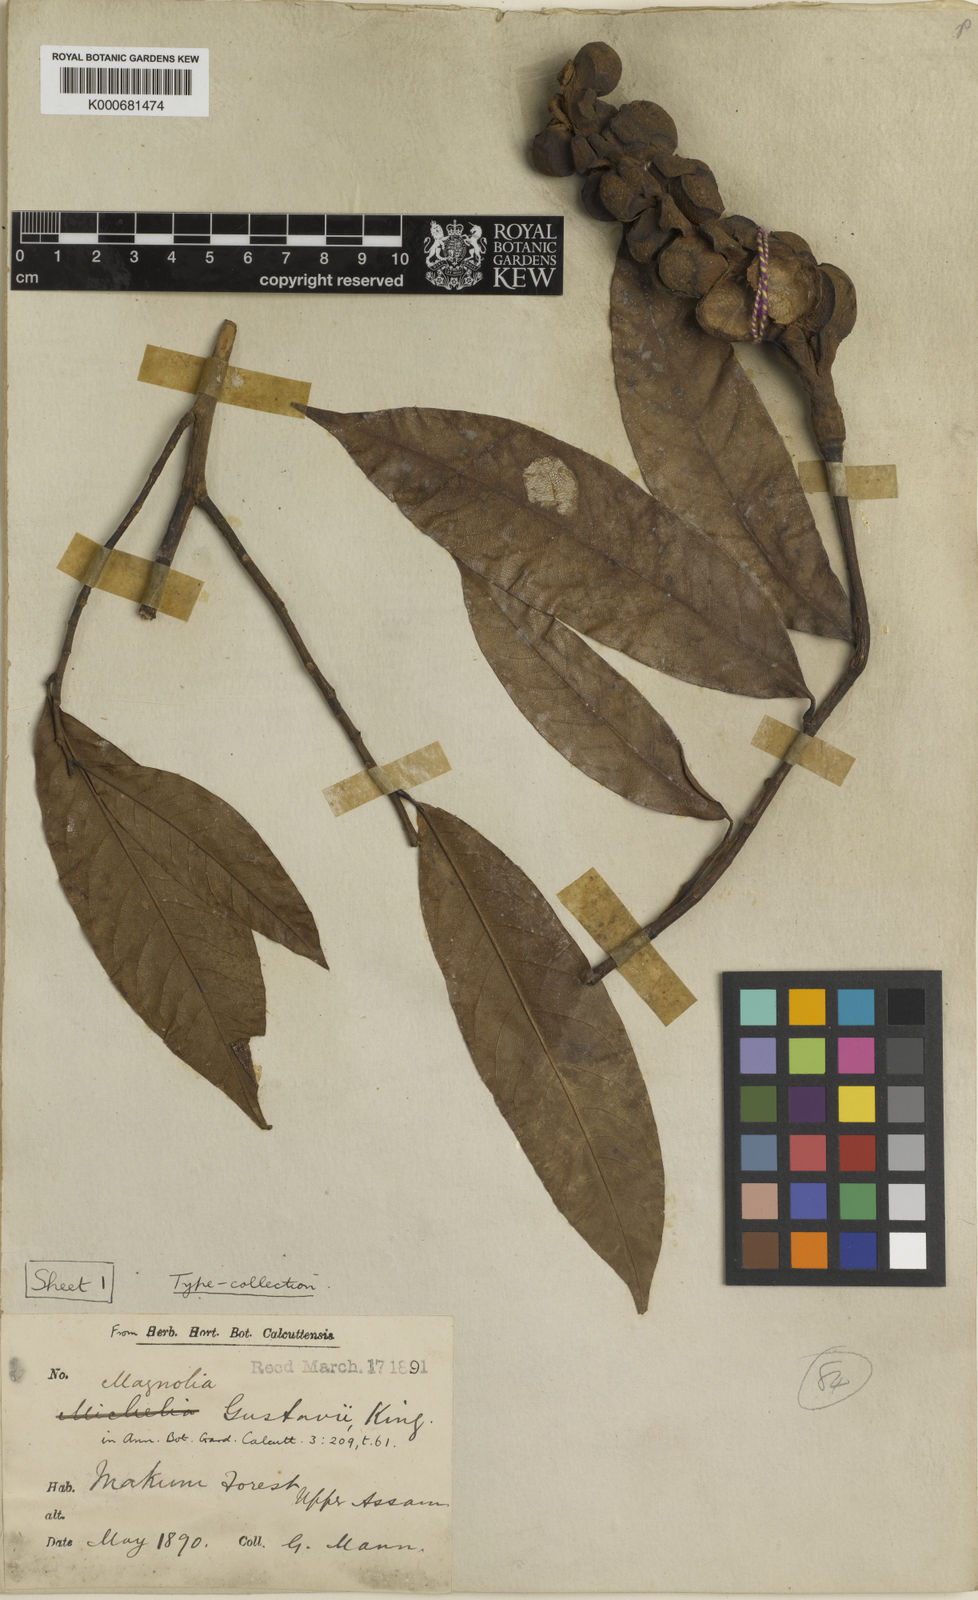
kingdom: Plantae
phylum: Tracheophyta
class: Magnoliopsida
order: Magnoliales
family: Magnoliaceae
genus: Magnolia
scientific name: Magnolia gustavi
